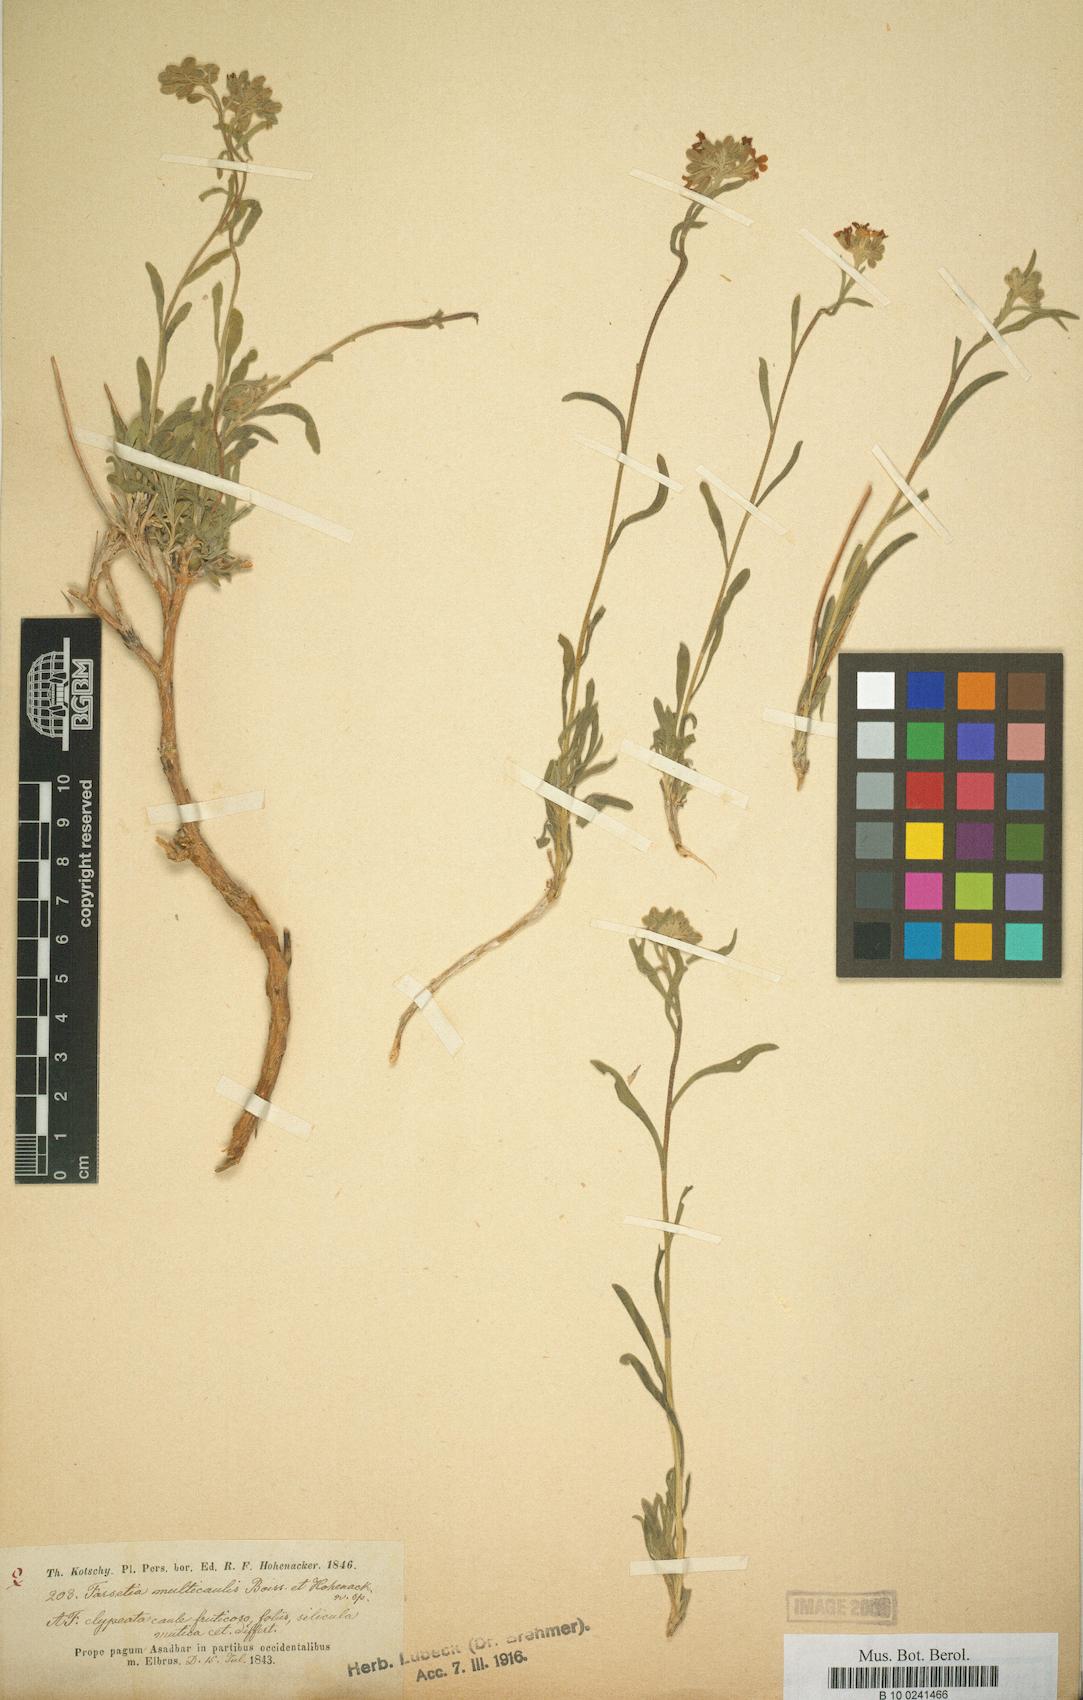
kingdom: Plantae
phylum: Tracheophyta
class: Magnoliopsida
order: Brassicales
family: Brassicaceae
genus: Irania
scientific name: Irania multicaulis
